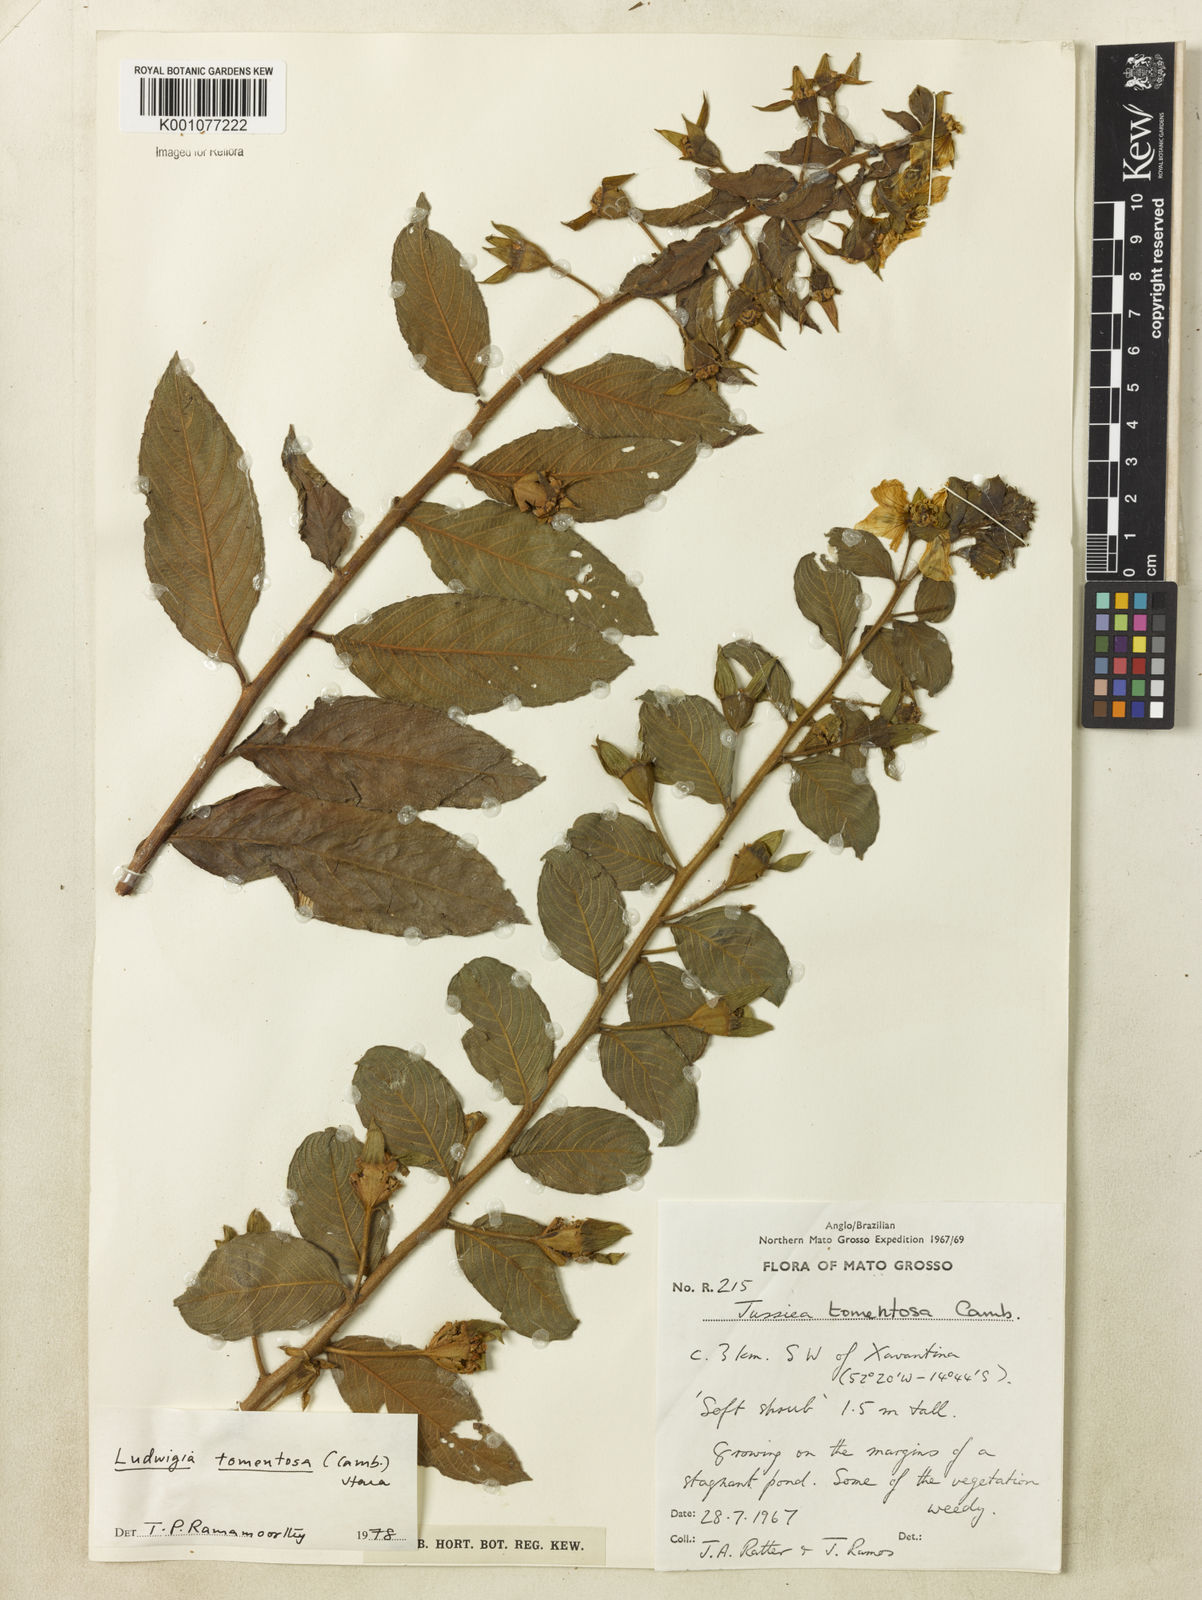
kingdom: Plantae
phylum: Tracheophyta
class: Magnoliopsida
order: Myrtales
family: Onagraceae
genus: Ludwigia
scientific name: Ludwigia tomentosa
